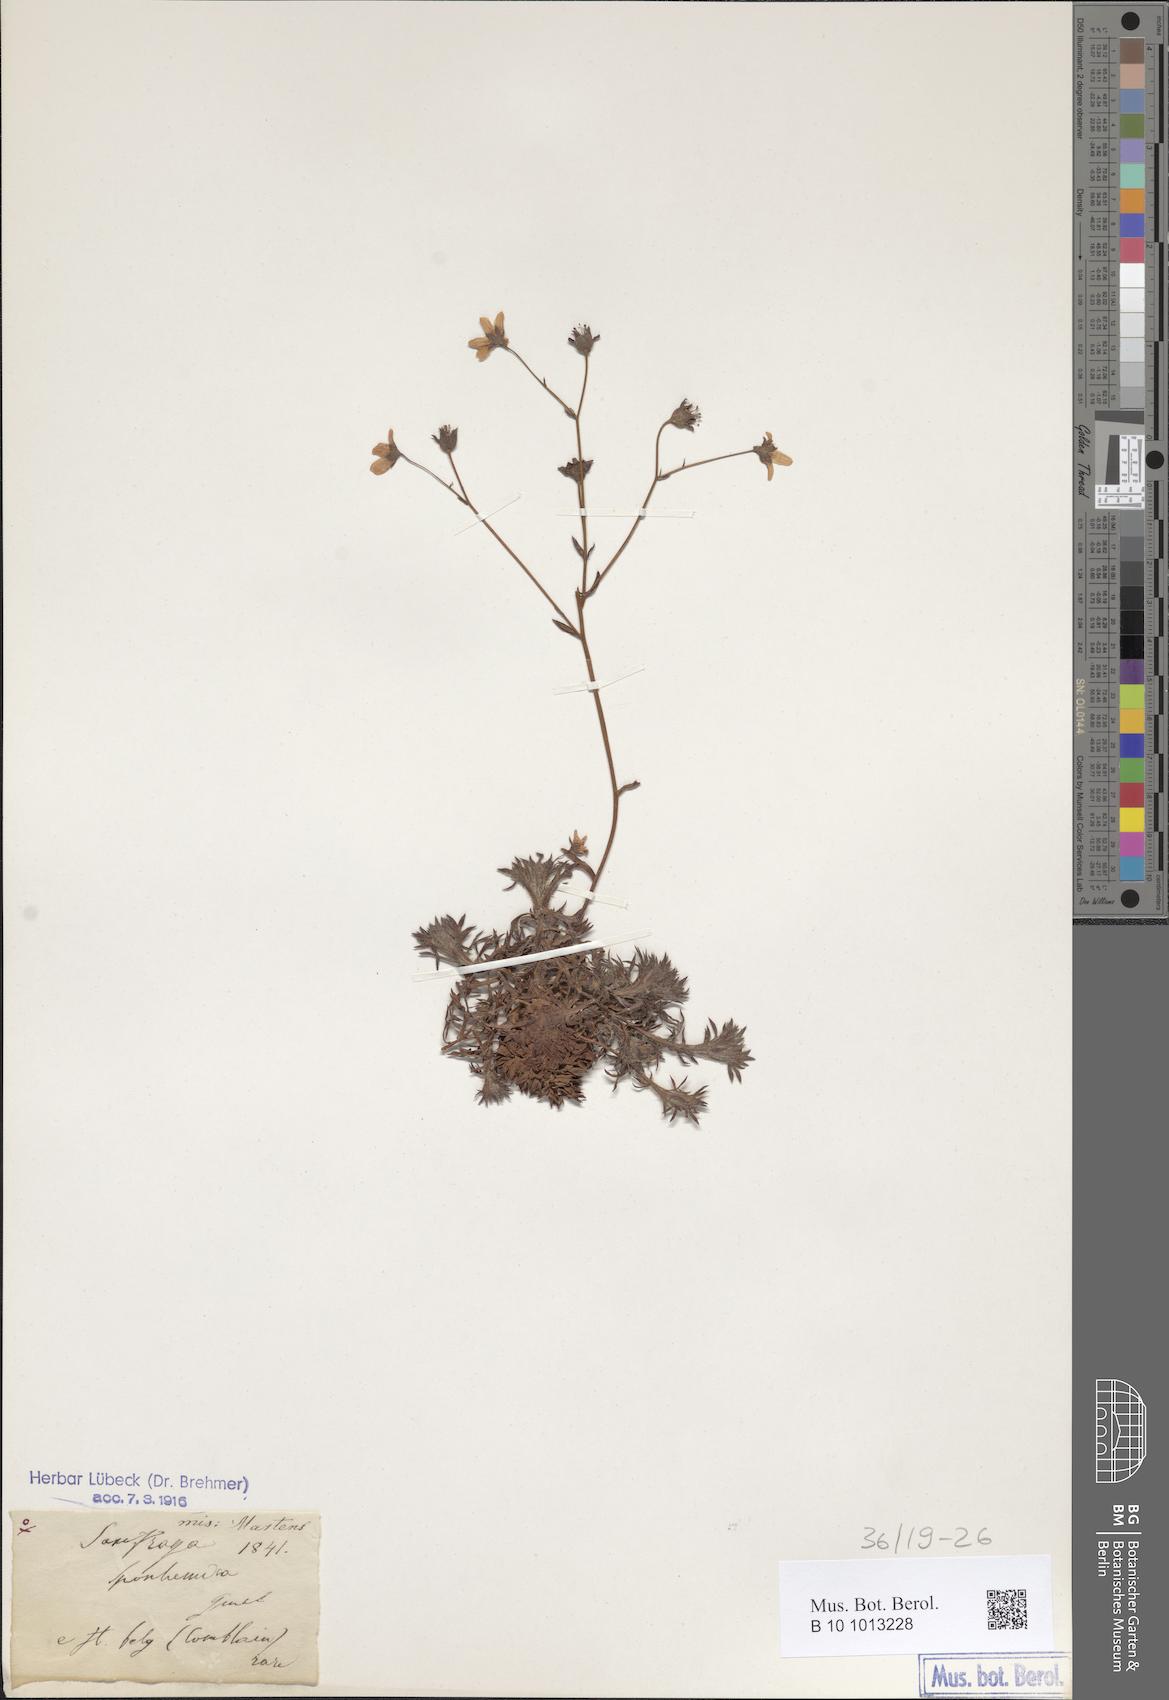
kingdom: Plantae
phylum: Tracheophyta
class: Magnoliopsida
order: Saxifragales
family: Saxifragaceae
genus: Saxifraga
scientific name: Saxifraga rosacea
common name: Irish saxifrage
